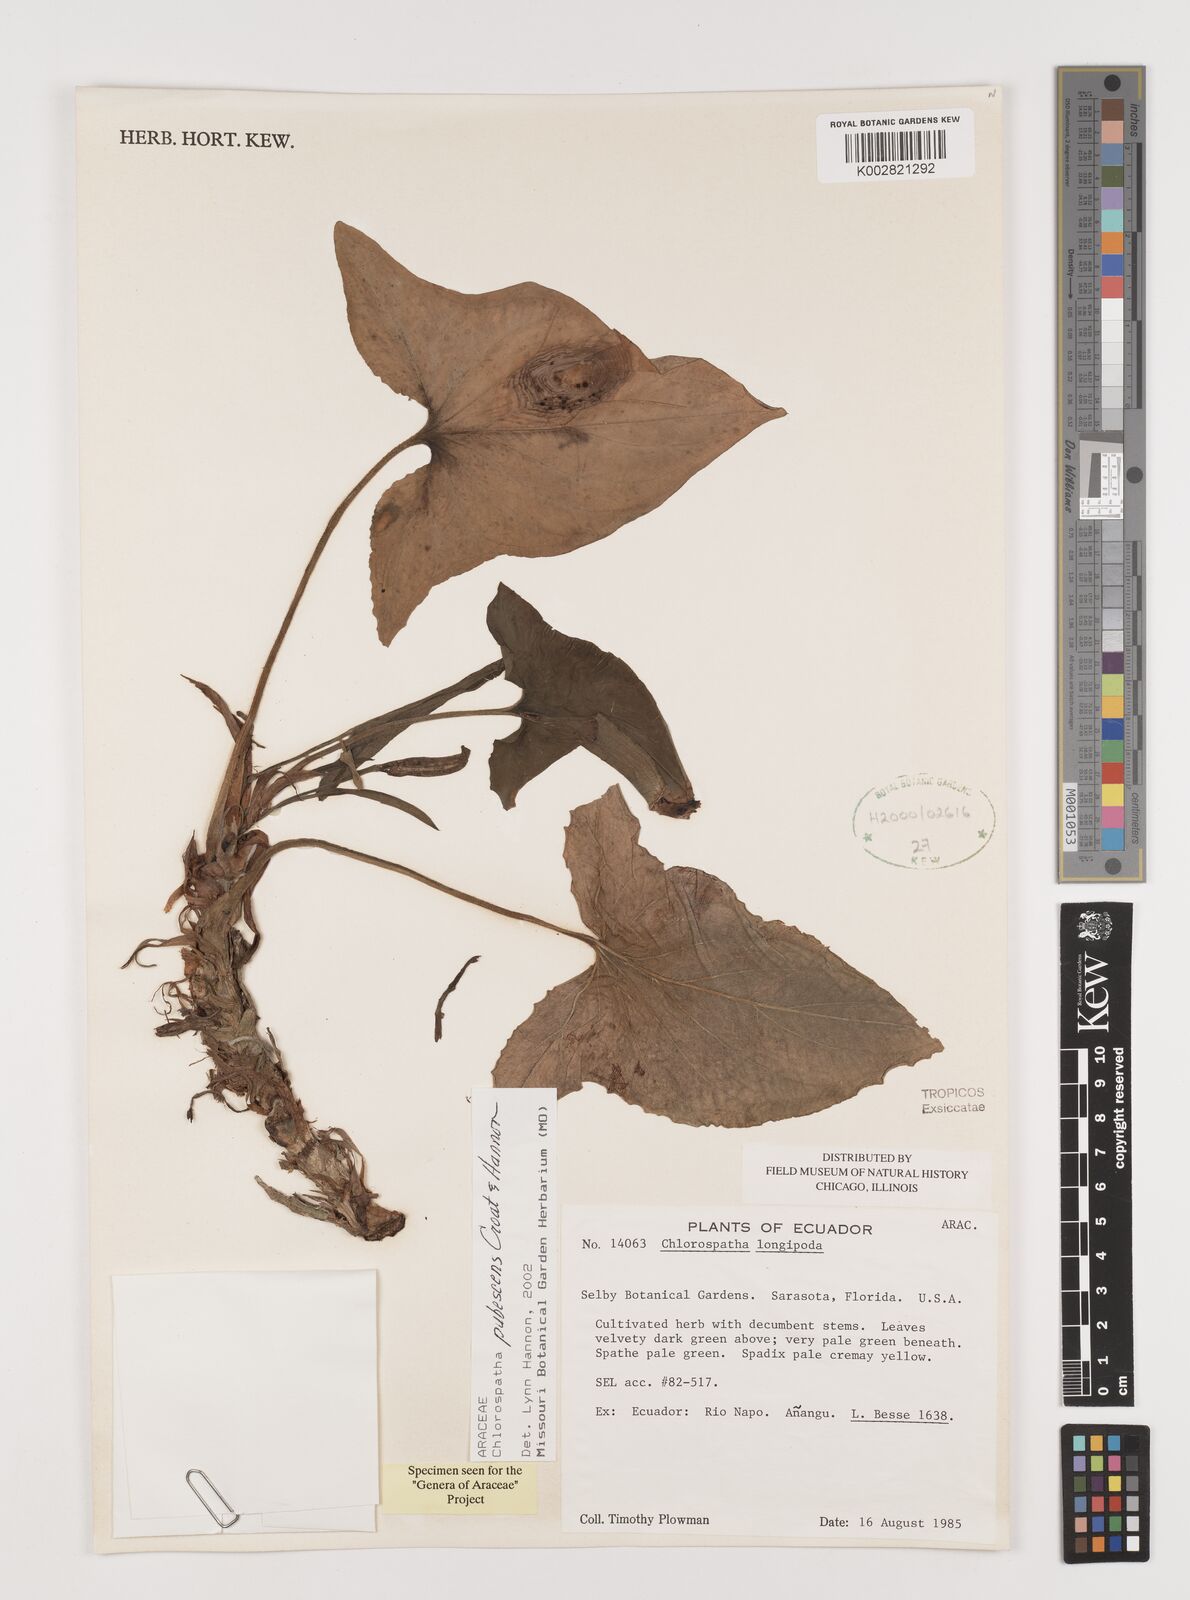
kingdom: Plantae
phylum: Tracheophyta
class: Liliopsida
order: Alismatales
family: Araceae
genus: Chlorospatha
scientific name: Chlorospatha pubescens
